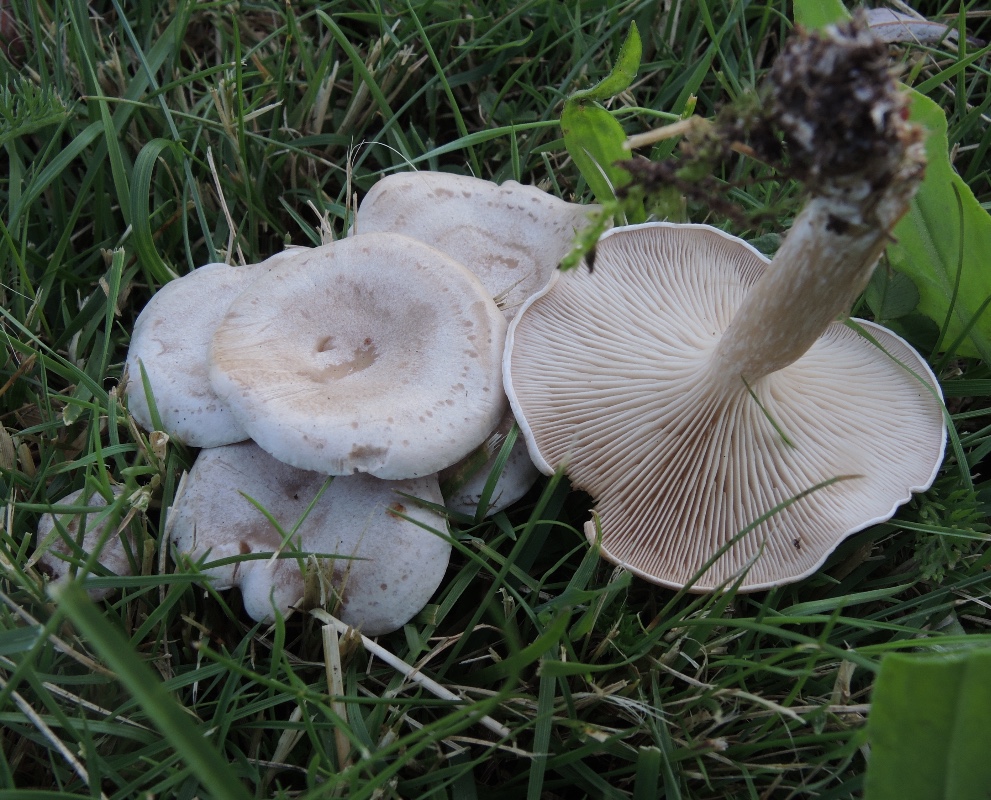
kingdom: Fungi
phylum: Basidiomycota
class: Agaricomycetes
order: Agaricales
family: Tricholomataceae
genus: Clitocybe
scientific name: Clitocybe rivulosa
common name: eng-tragthat
